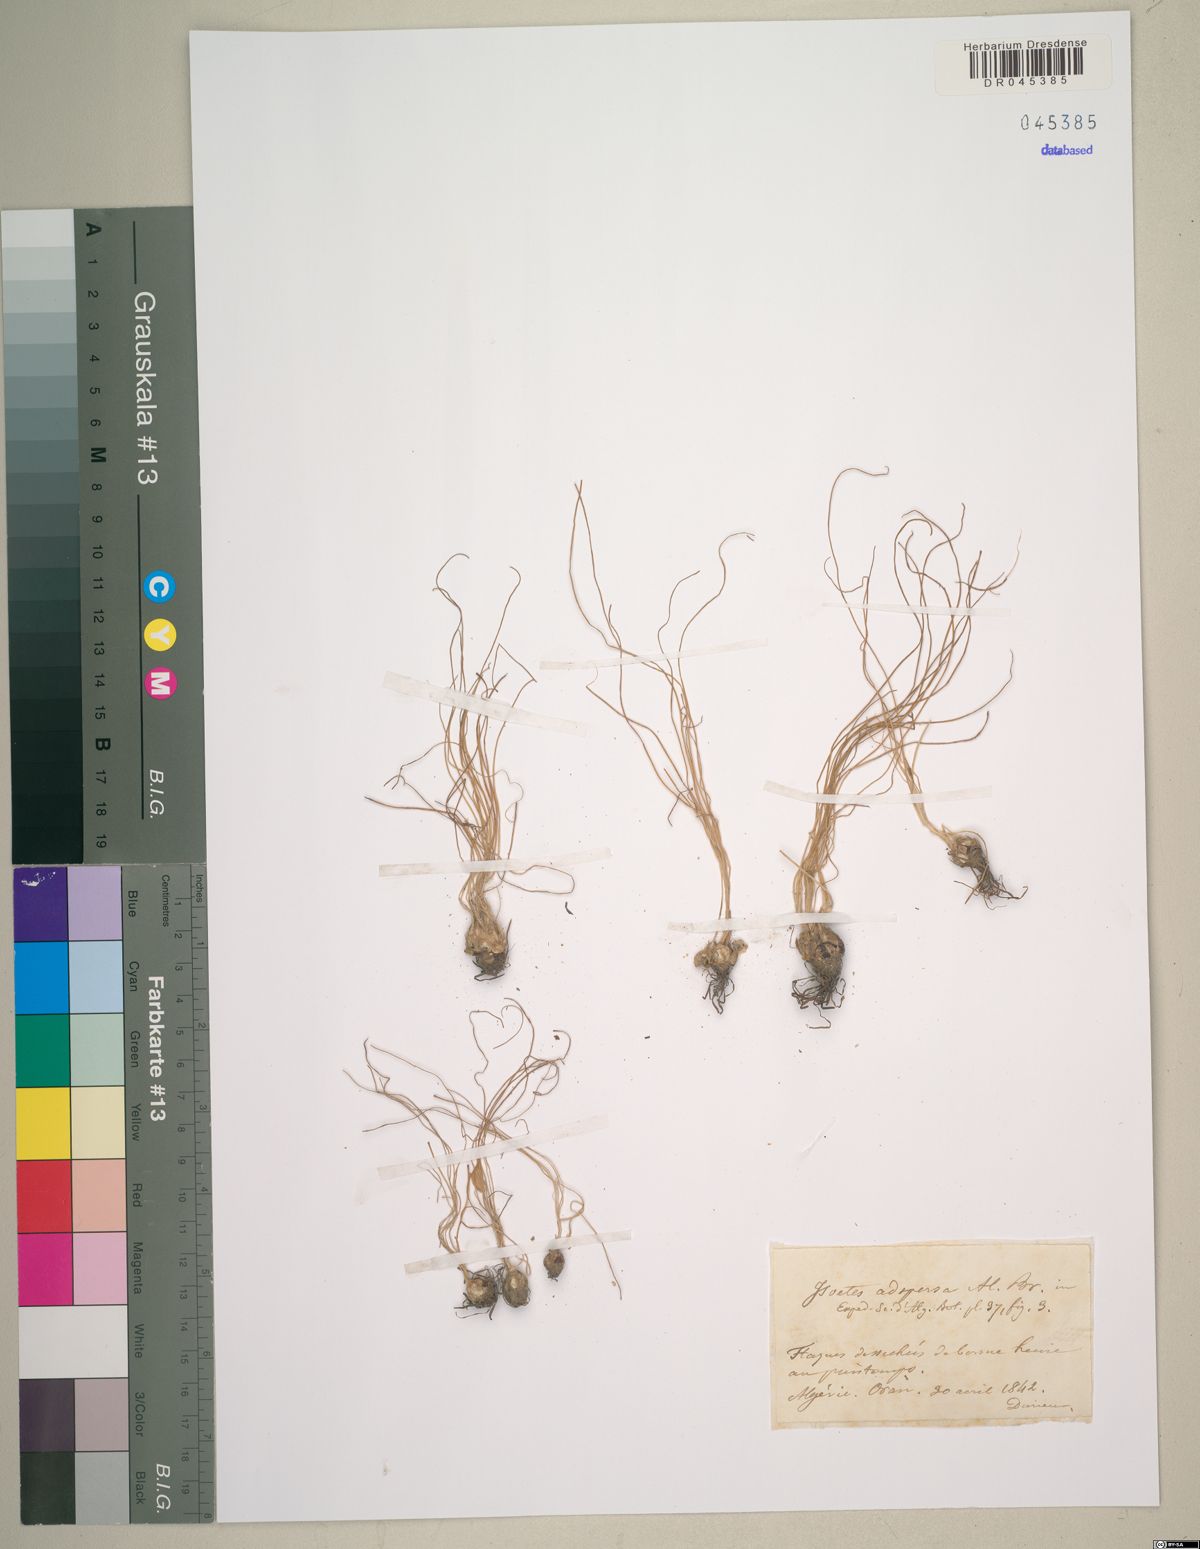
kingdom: Plantae
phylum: Tracheophyta
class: Lycopodiopsida
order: Isoetales
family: Isoetaceae
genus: Isoetes
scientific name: Isoetes longissima
